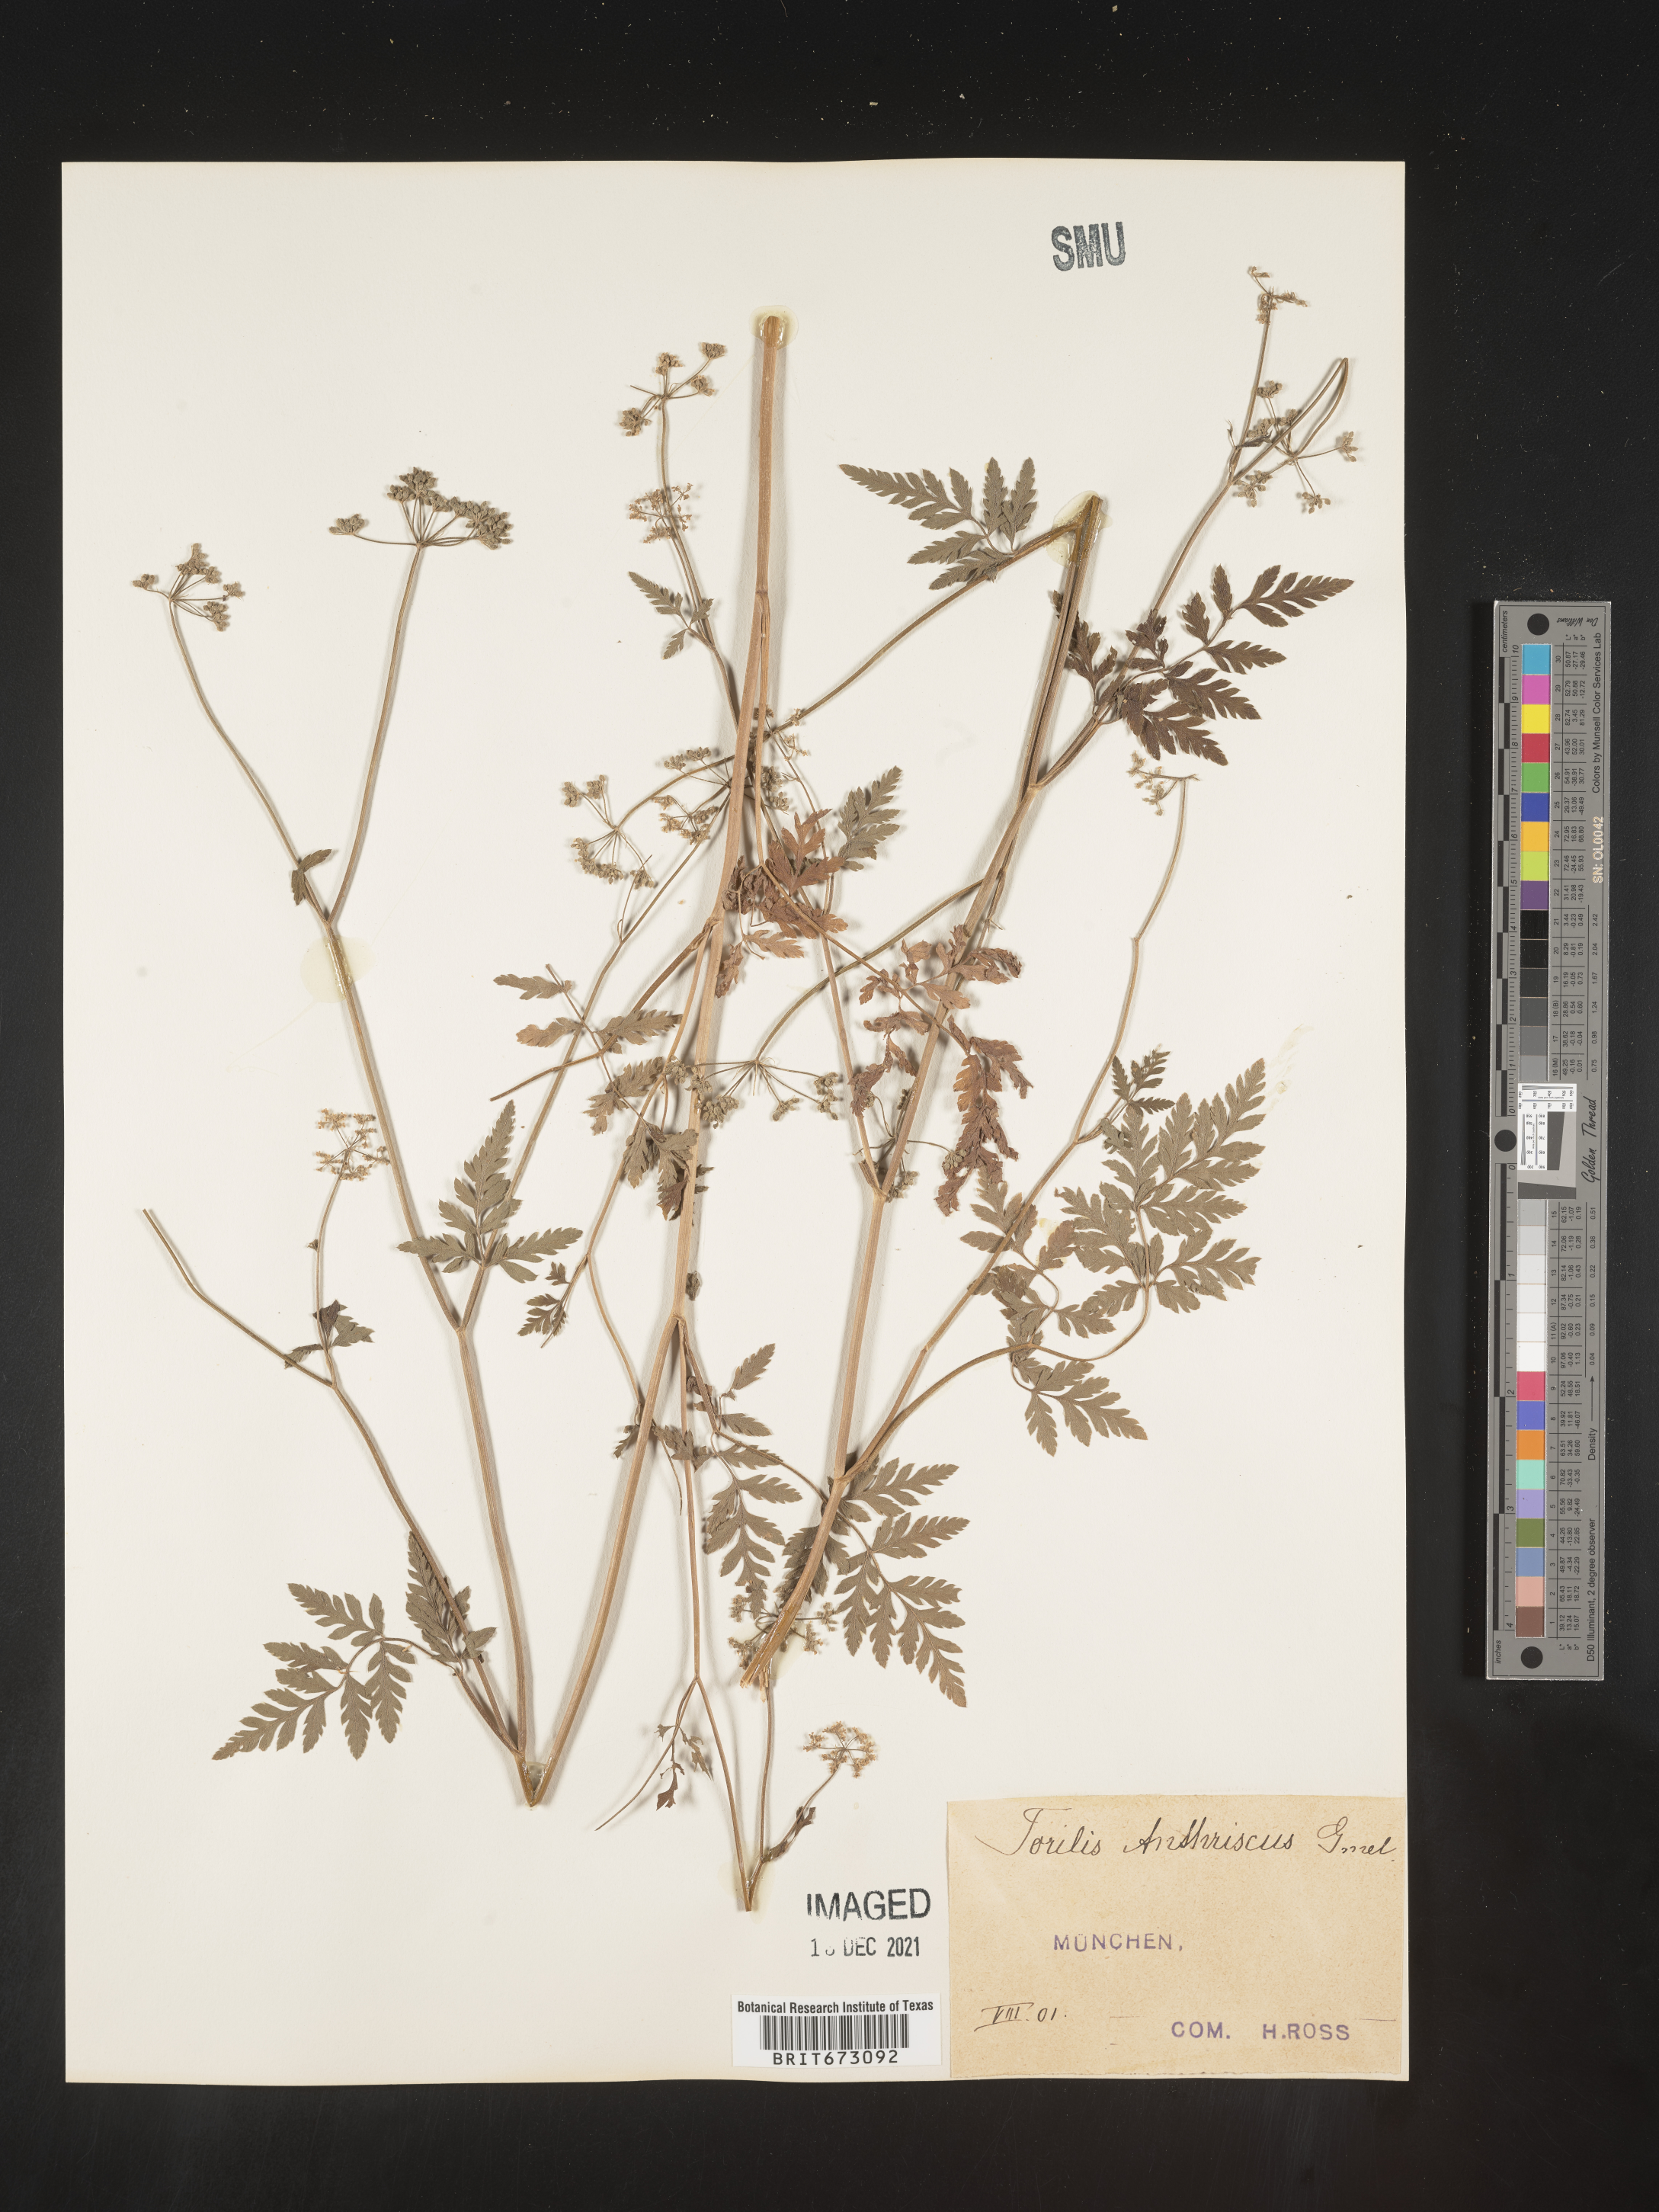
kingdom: Plantae
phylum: Tracheophyta
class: Magnoliopsida
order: Apiales
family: Apiaceae
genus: Torilis
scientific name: Torilis
